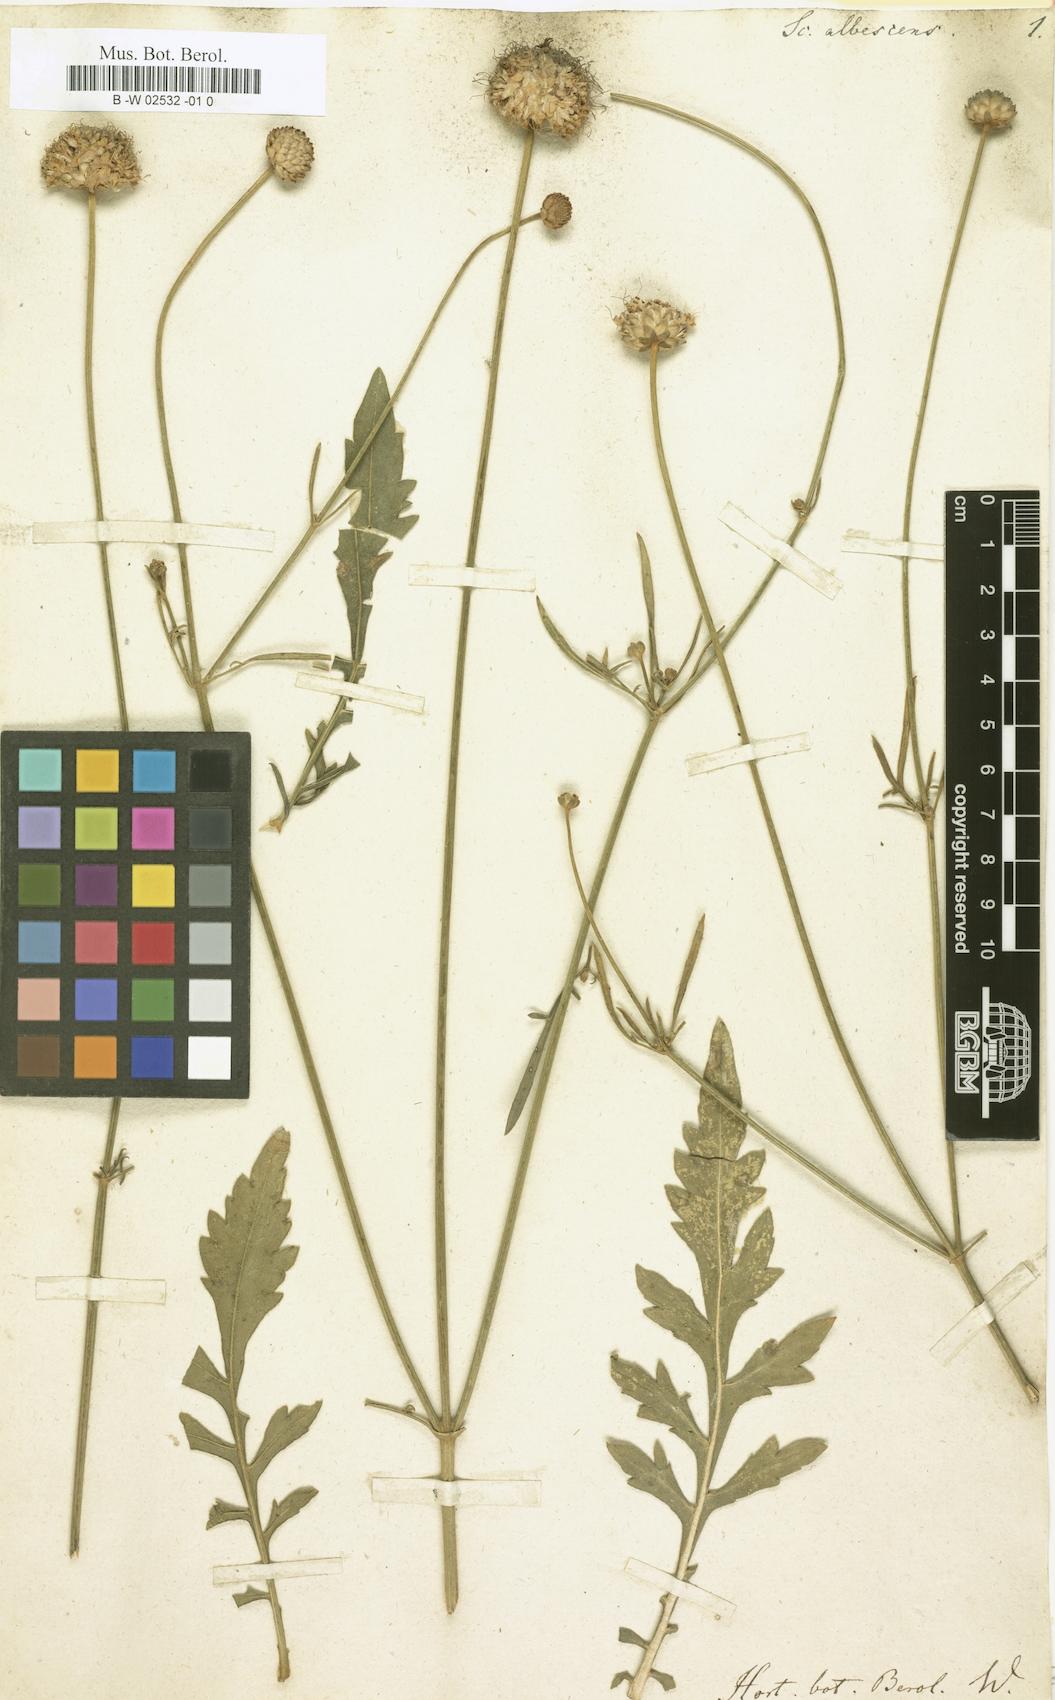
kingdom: Plantae
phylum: Tracheophyta
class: Magnoliopsida
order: Dipsacales
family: Caprifoliaceae
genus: Cephalaria
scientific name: Cephalaria leucantha
